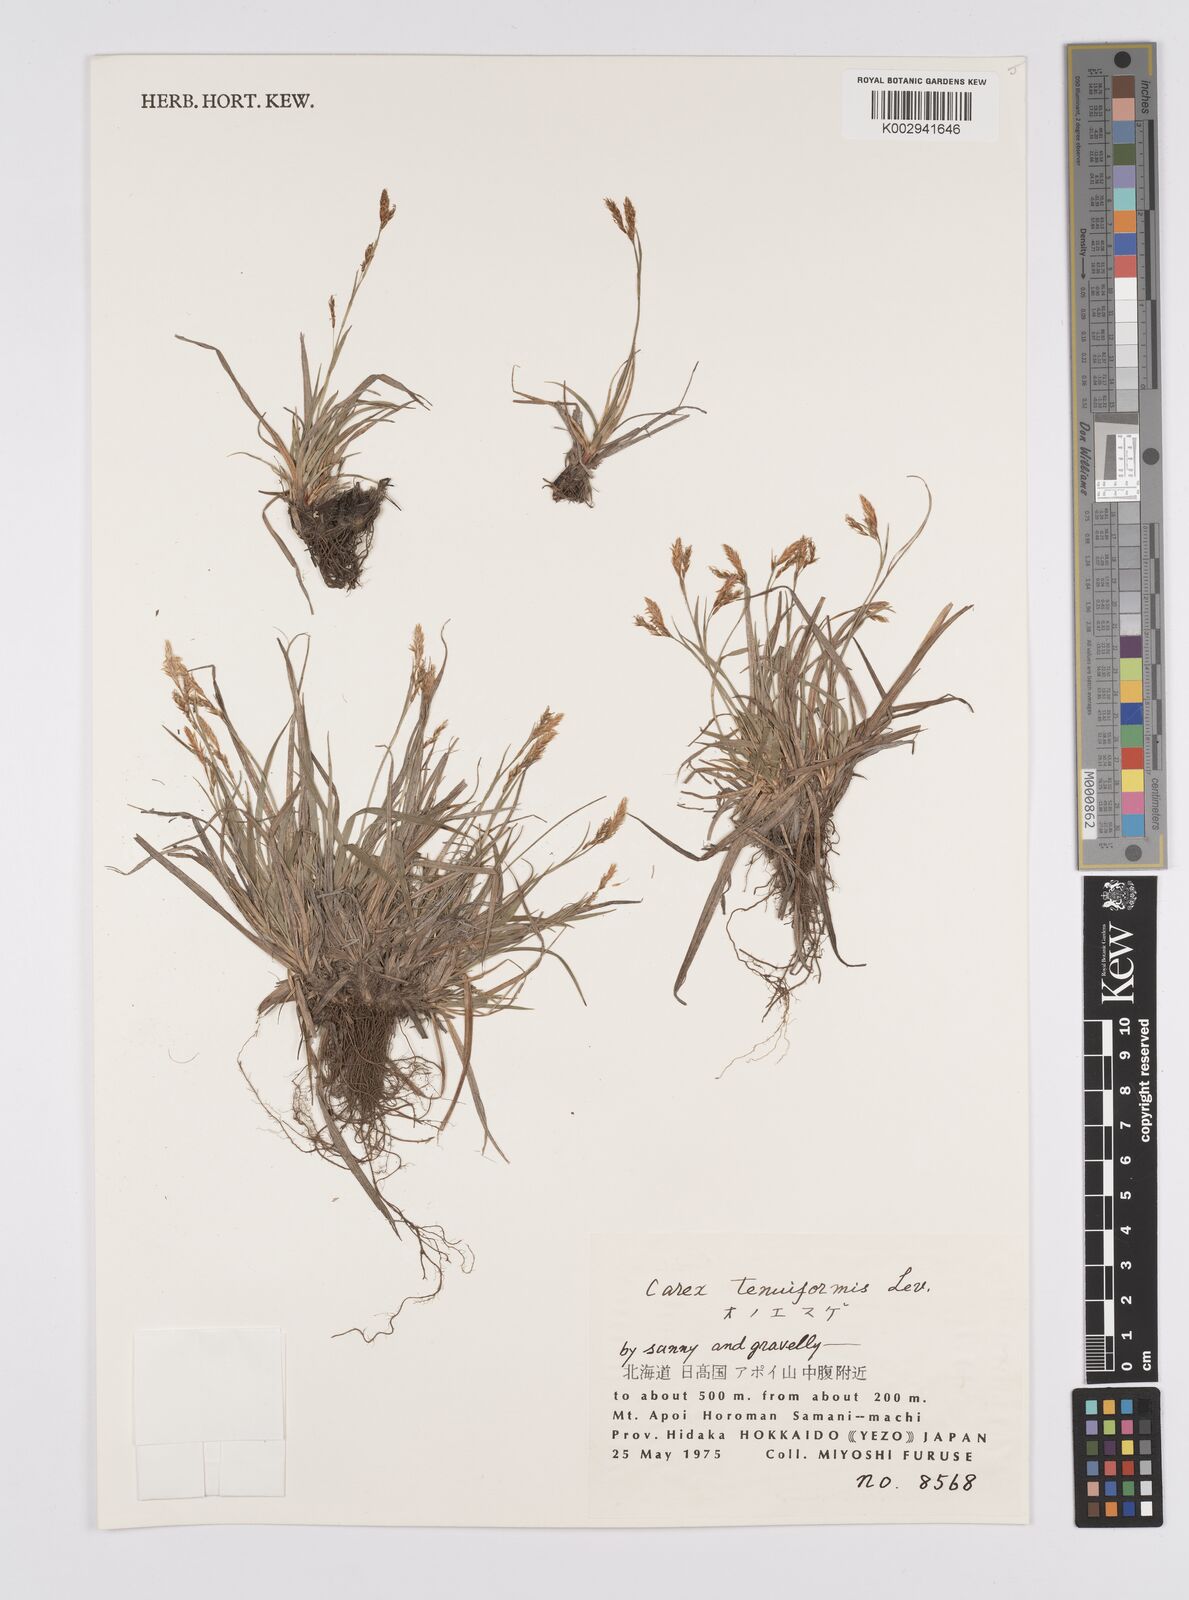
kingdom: Plantae
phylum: Tracheophyta
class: Liliopsida
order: Poales
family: Cyperaceae
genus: Carex
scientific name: Carex chrysolepis
